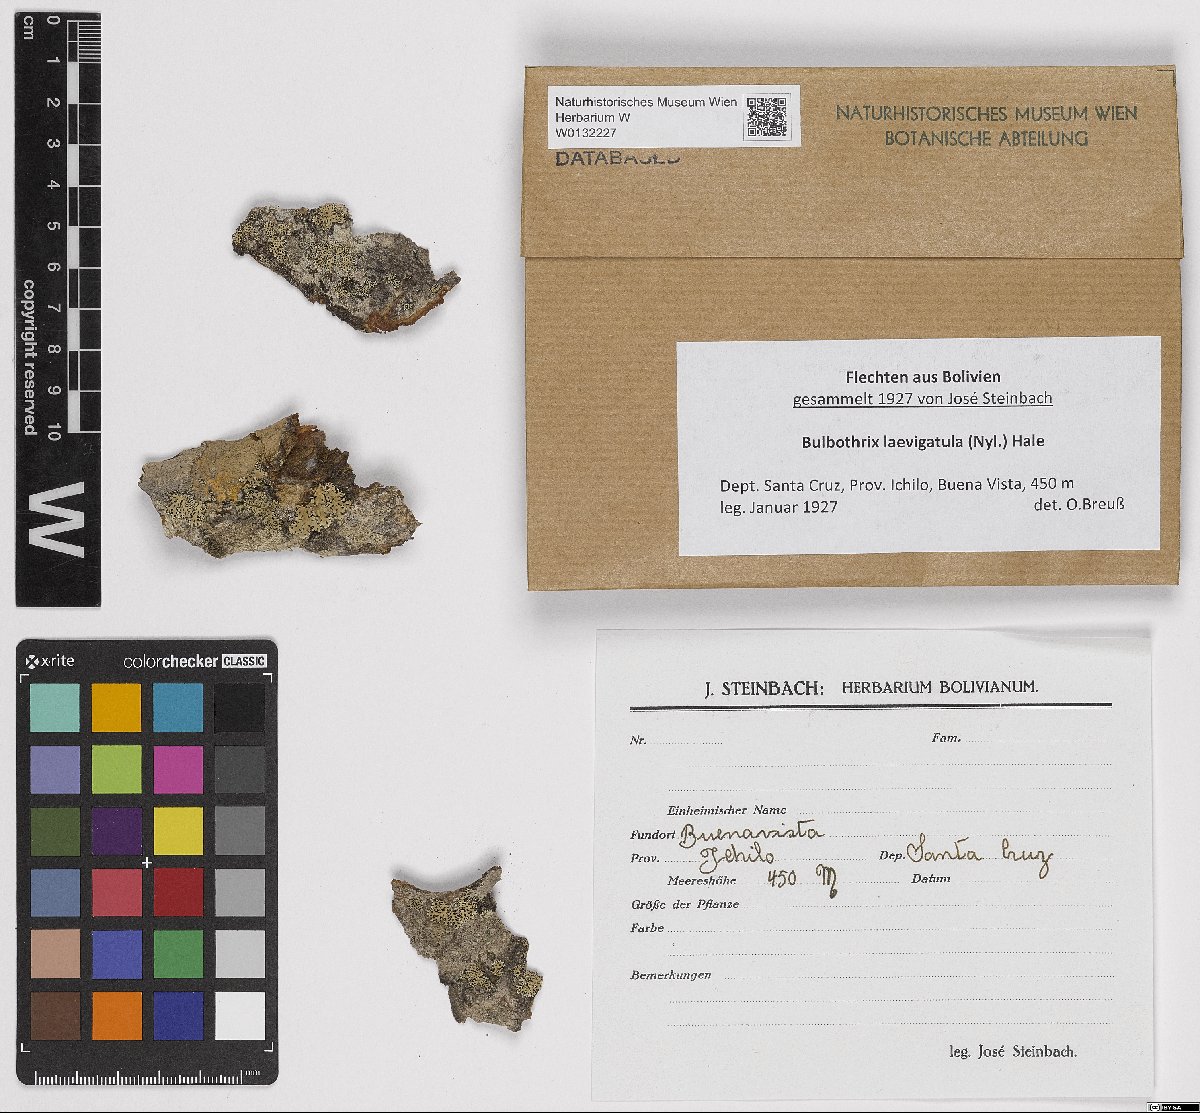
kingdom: Fungi
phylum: Ascomycota
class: Lecanoromycetes
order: Lecanorales
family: Parmeliaceae
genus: Bulbothrix
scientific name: Bulbothrix laevigatula
